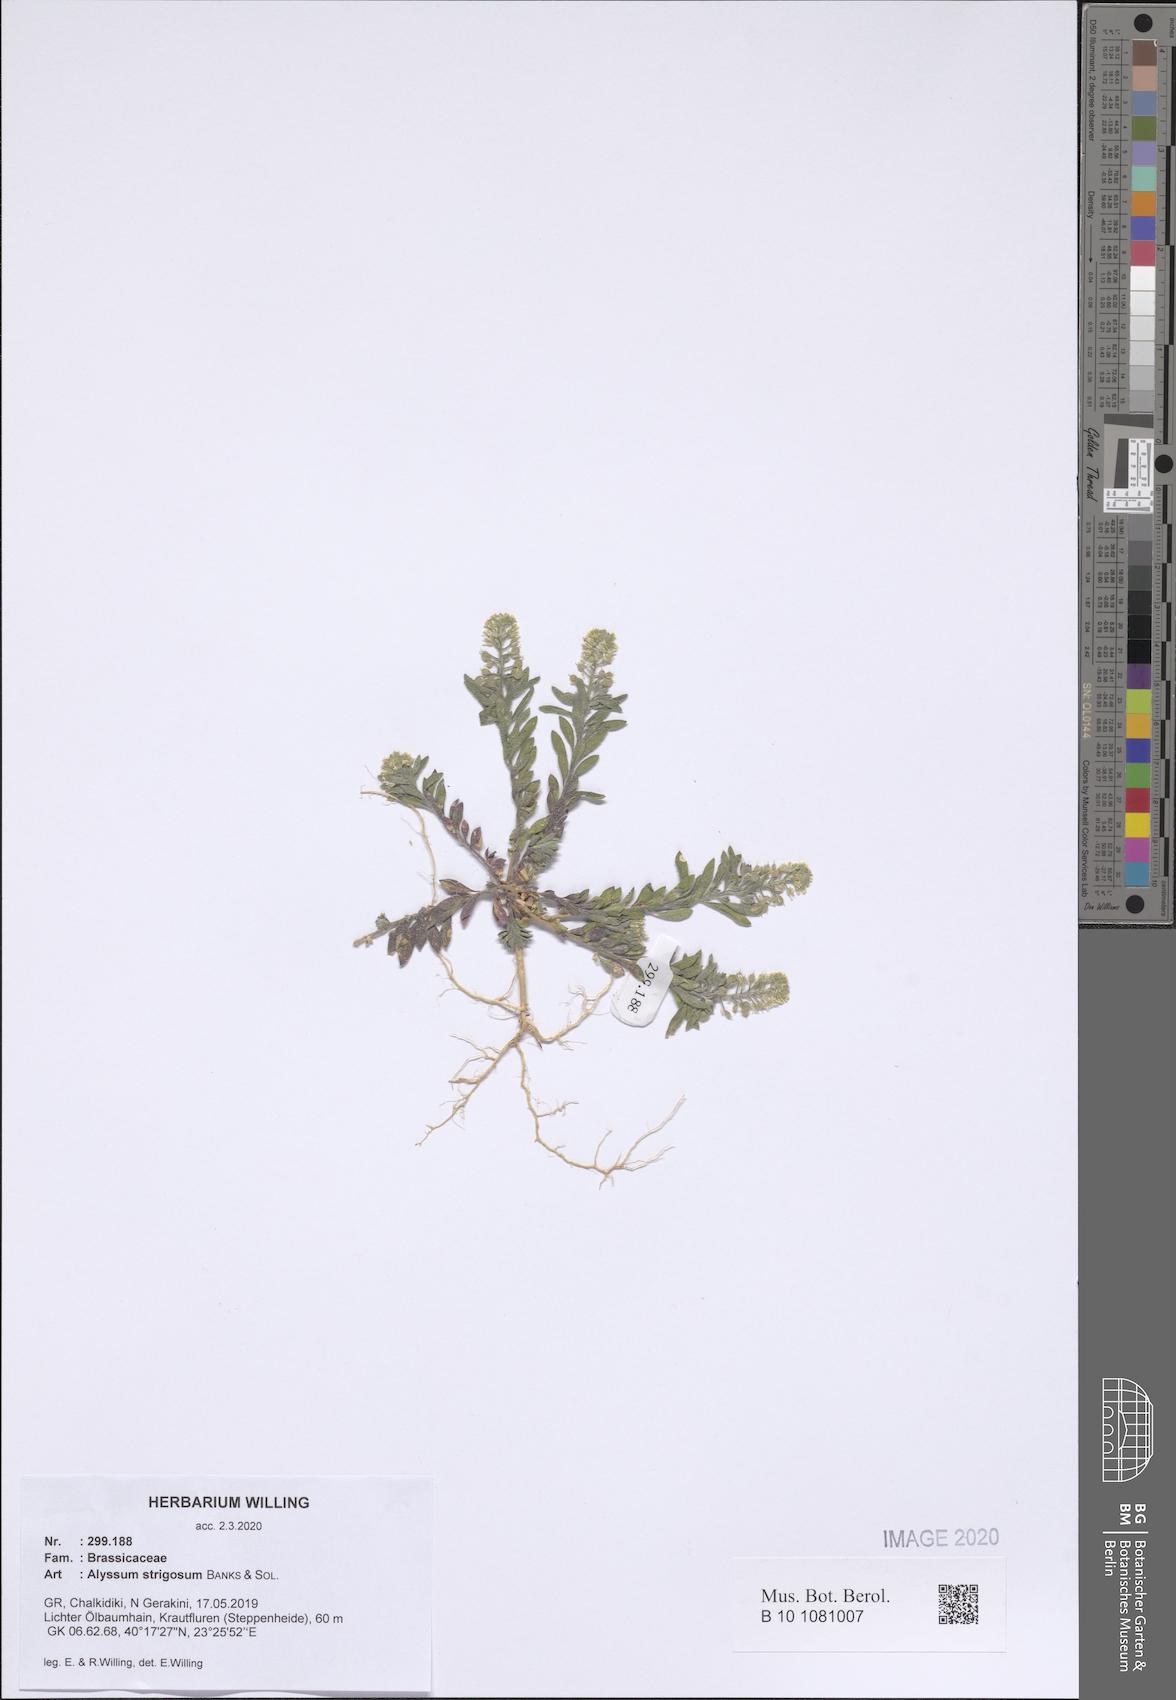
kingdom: Plantae
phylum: Tracheophyta
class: Magnoliopsida
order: Brassicales
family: Brassicaceae
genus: Alyssum
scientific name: Alyssum strigosum
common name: Alyssum
